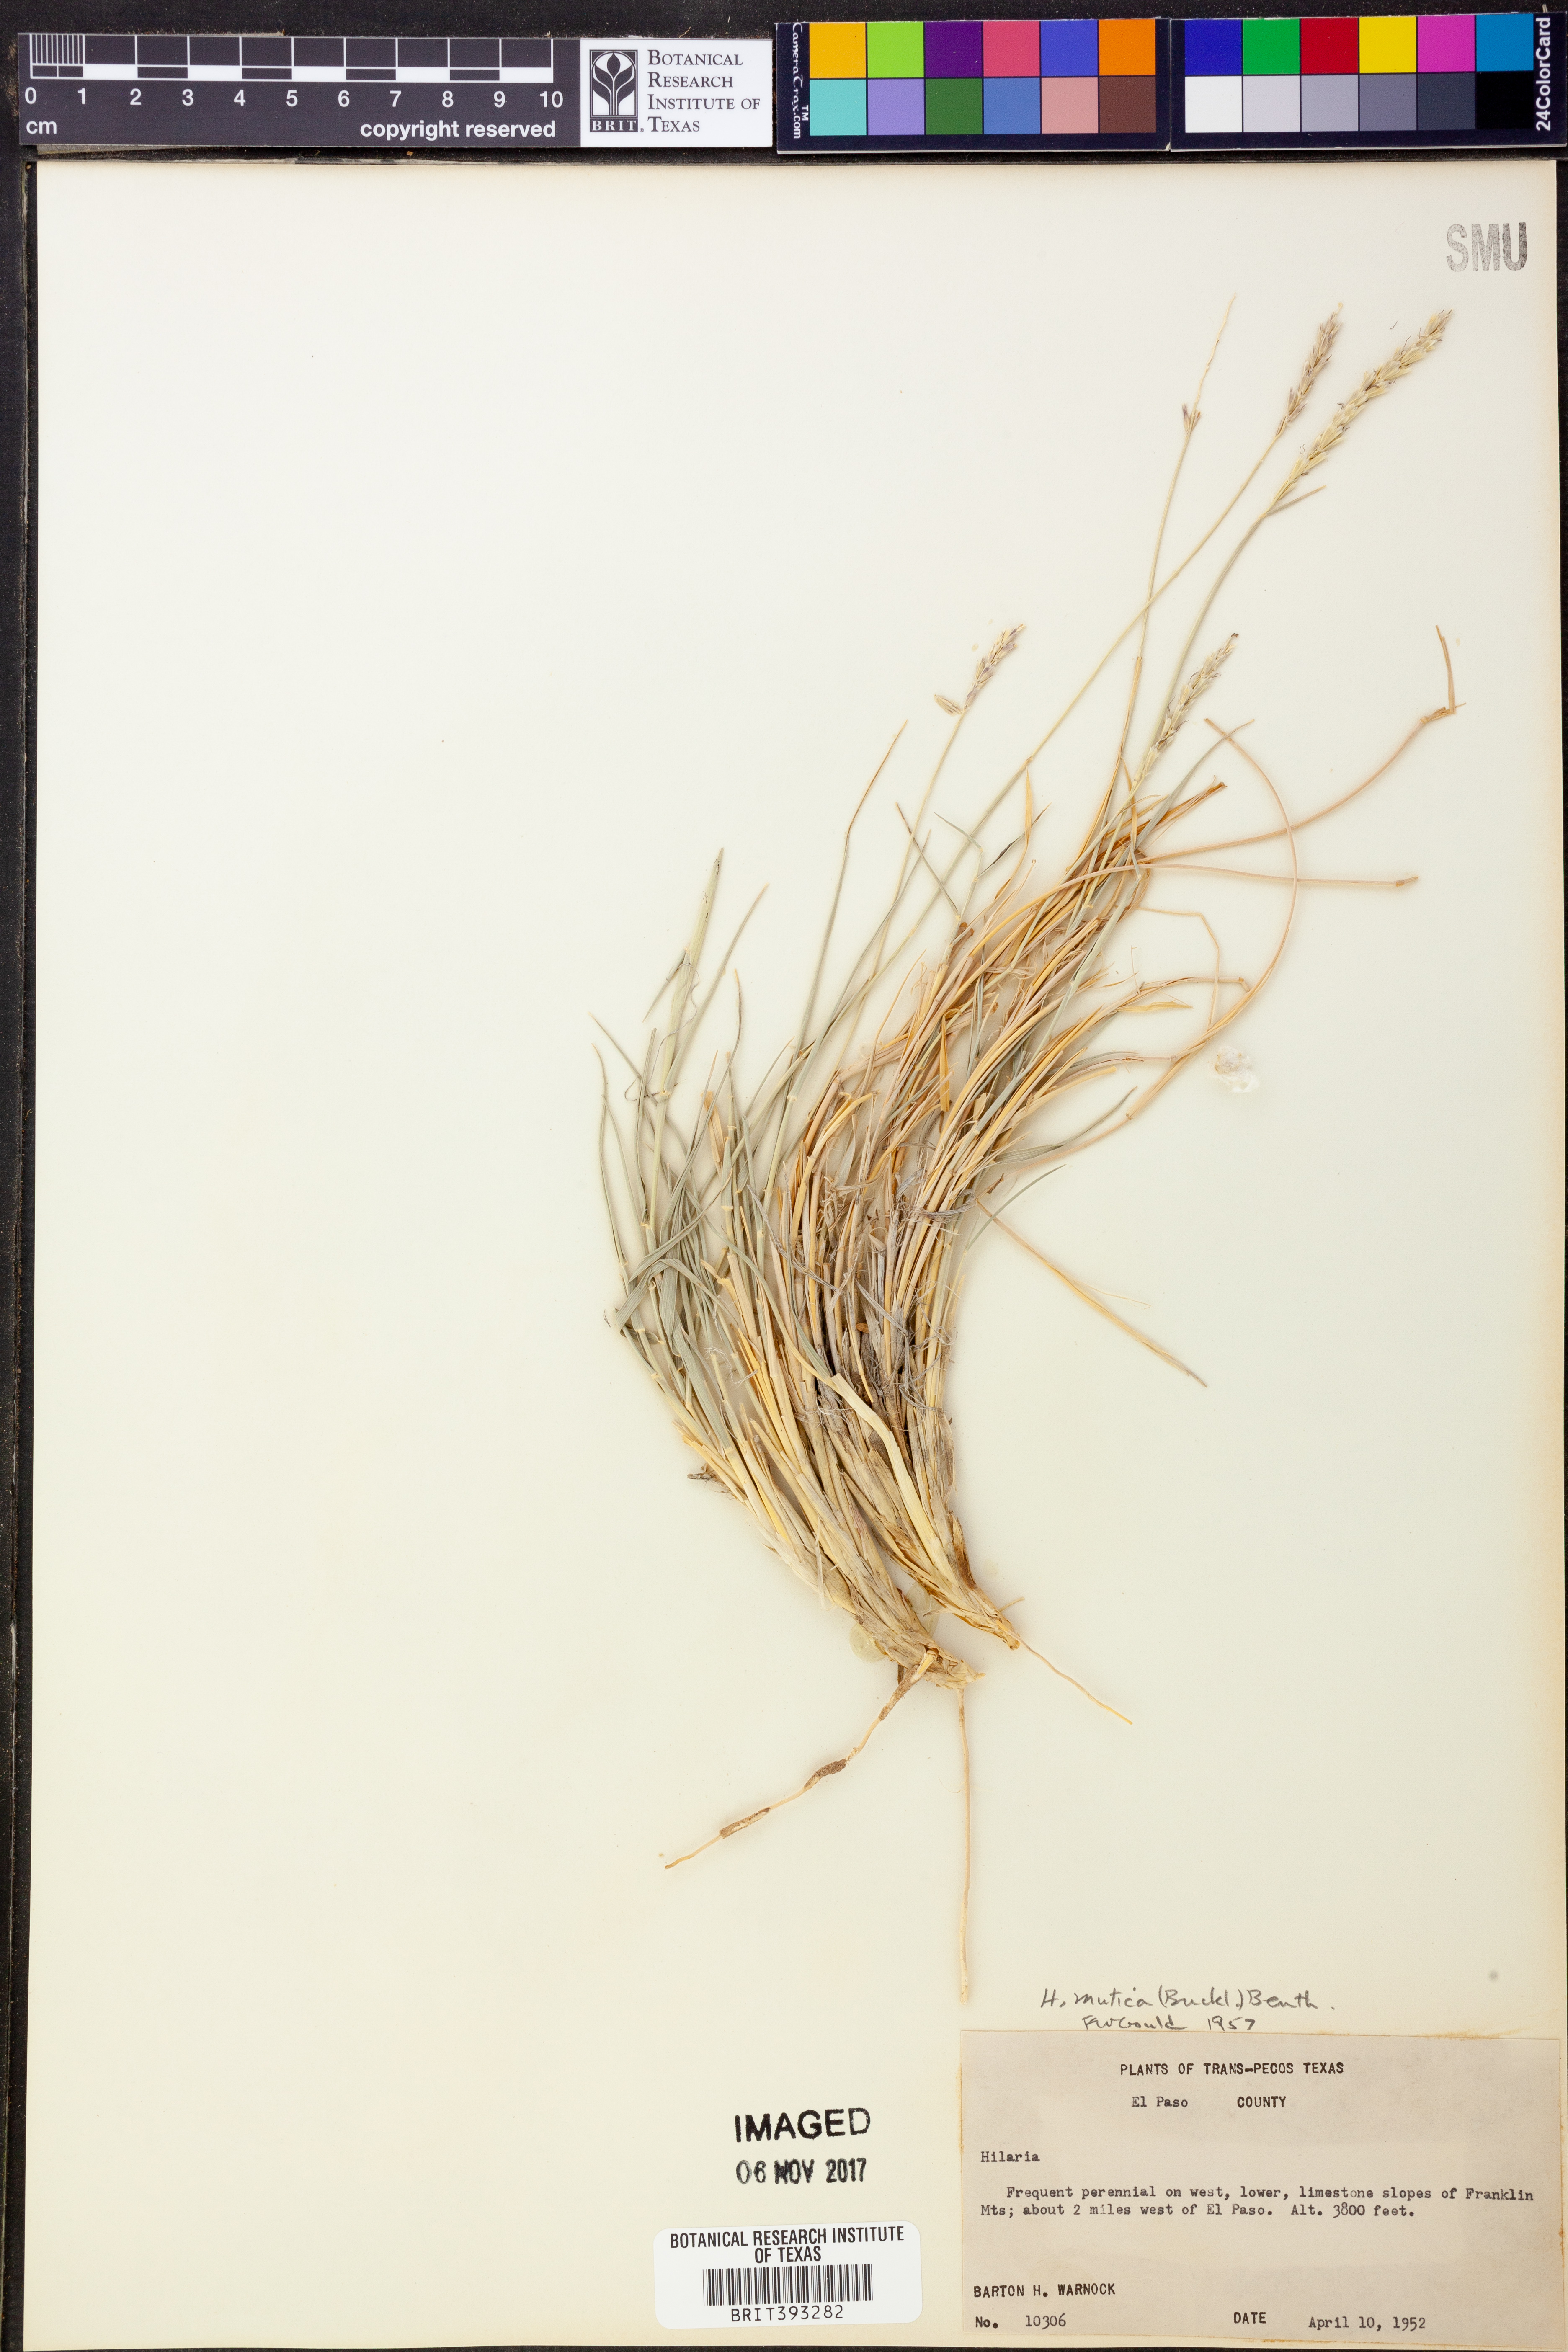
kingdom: Plantae
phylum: Tracheophyta
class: Liliopsida
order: Poales
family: Poaceae
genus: Hilaria
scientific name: Hilaria mutica
